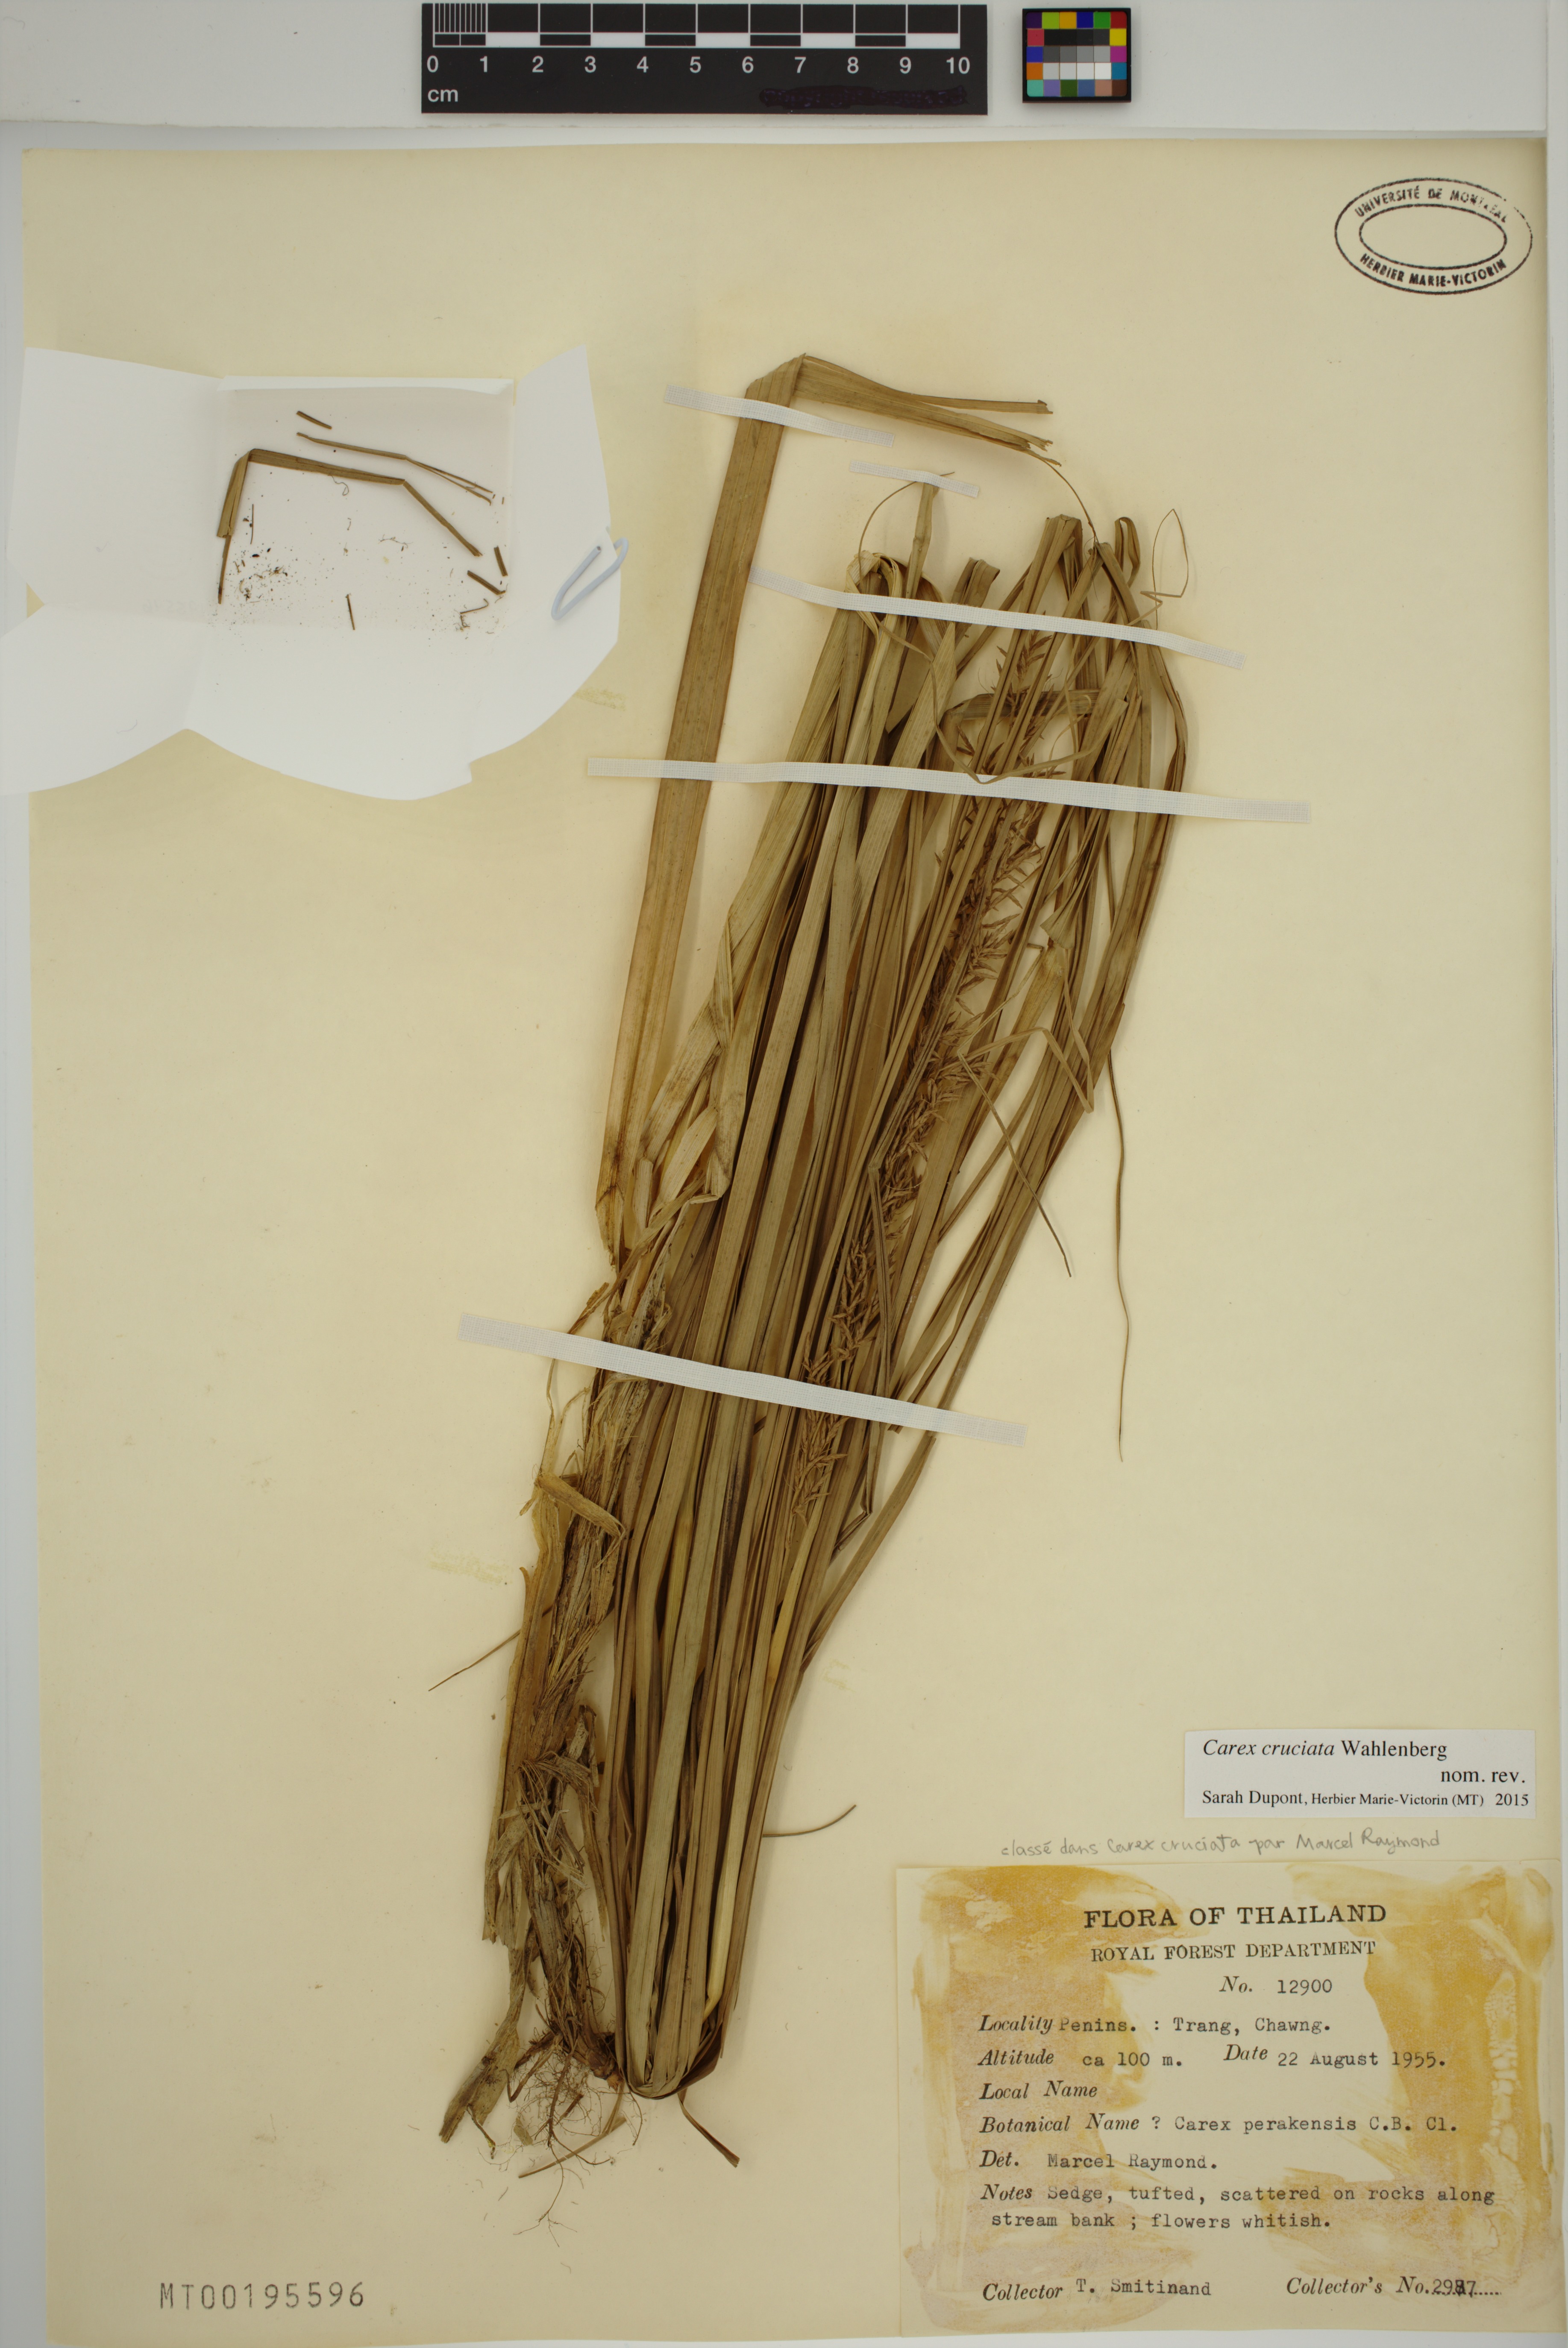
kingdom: Plantae
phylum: Tracheophyta
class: Liliopsida
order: Poales
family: Cyperaceae
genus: Carex
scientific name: Carex cruciata
